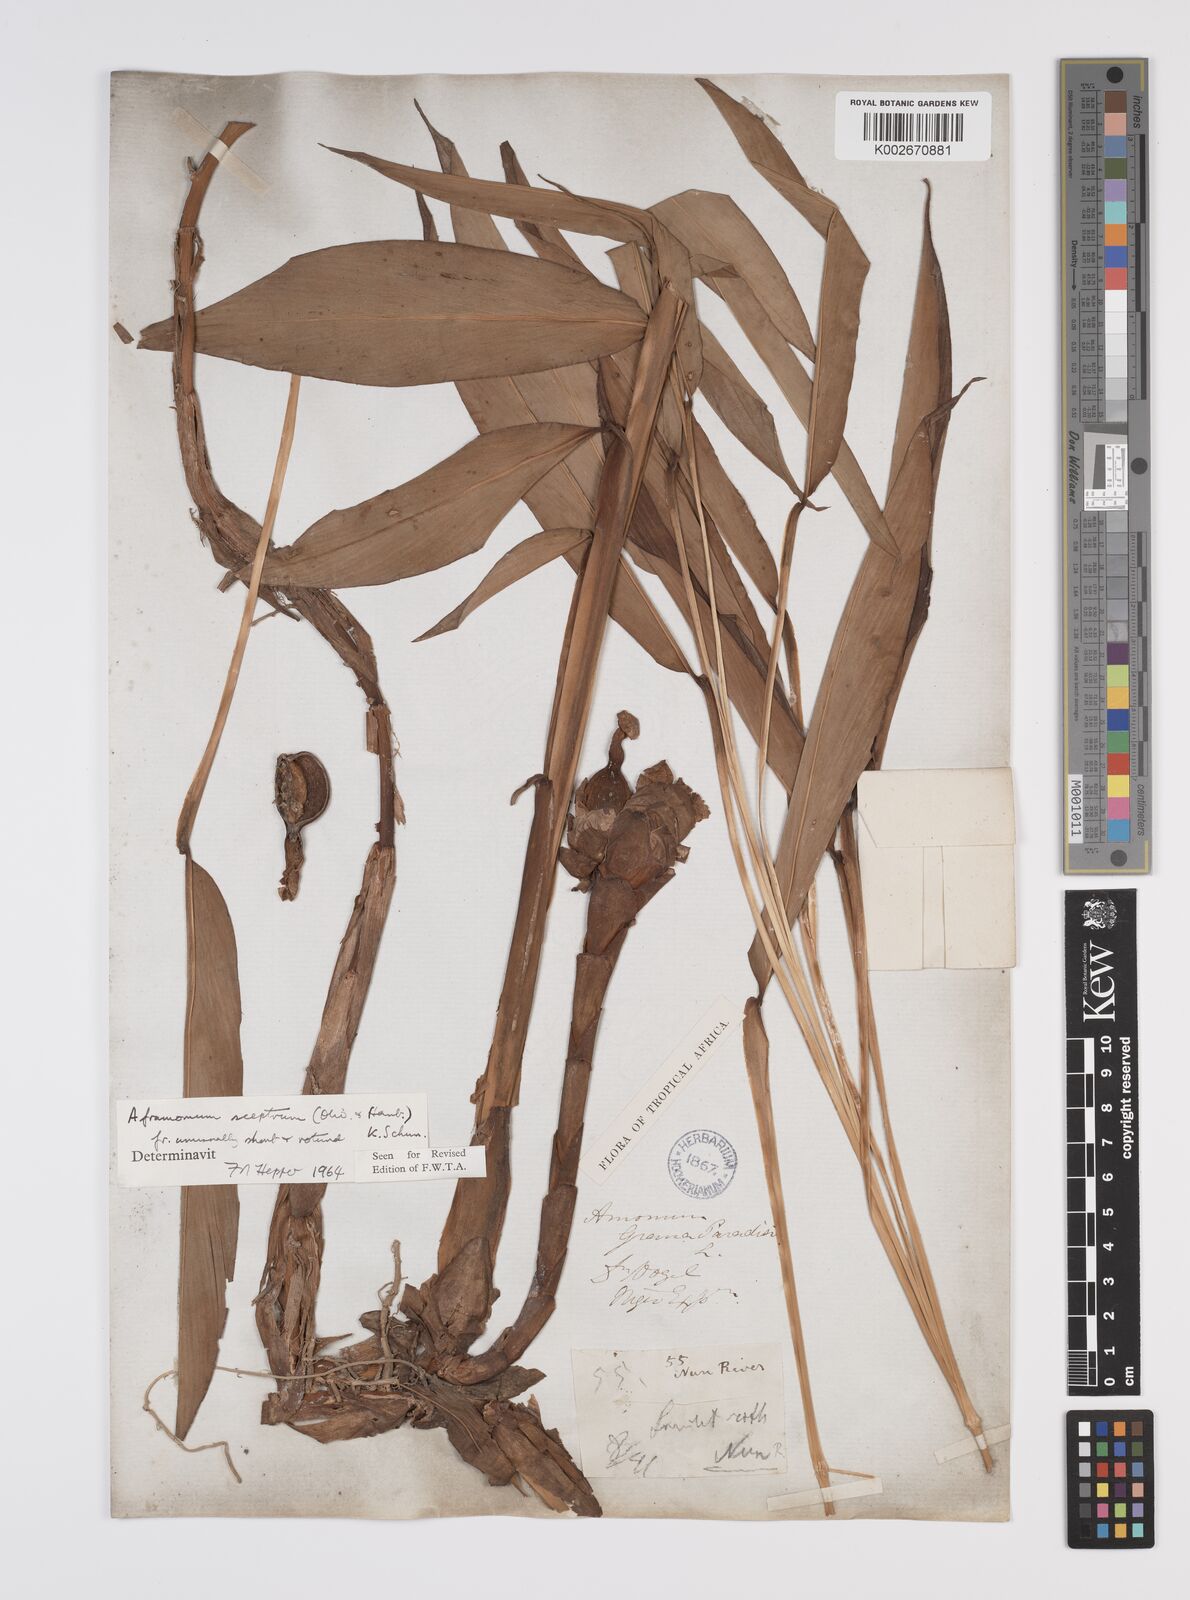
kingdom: Plantae
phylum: Tracheophyta
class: Liliopsida
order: Zingiberales
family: Zingiberaceae
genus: Aframomum
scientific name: Aframomum cereum
